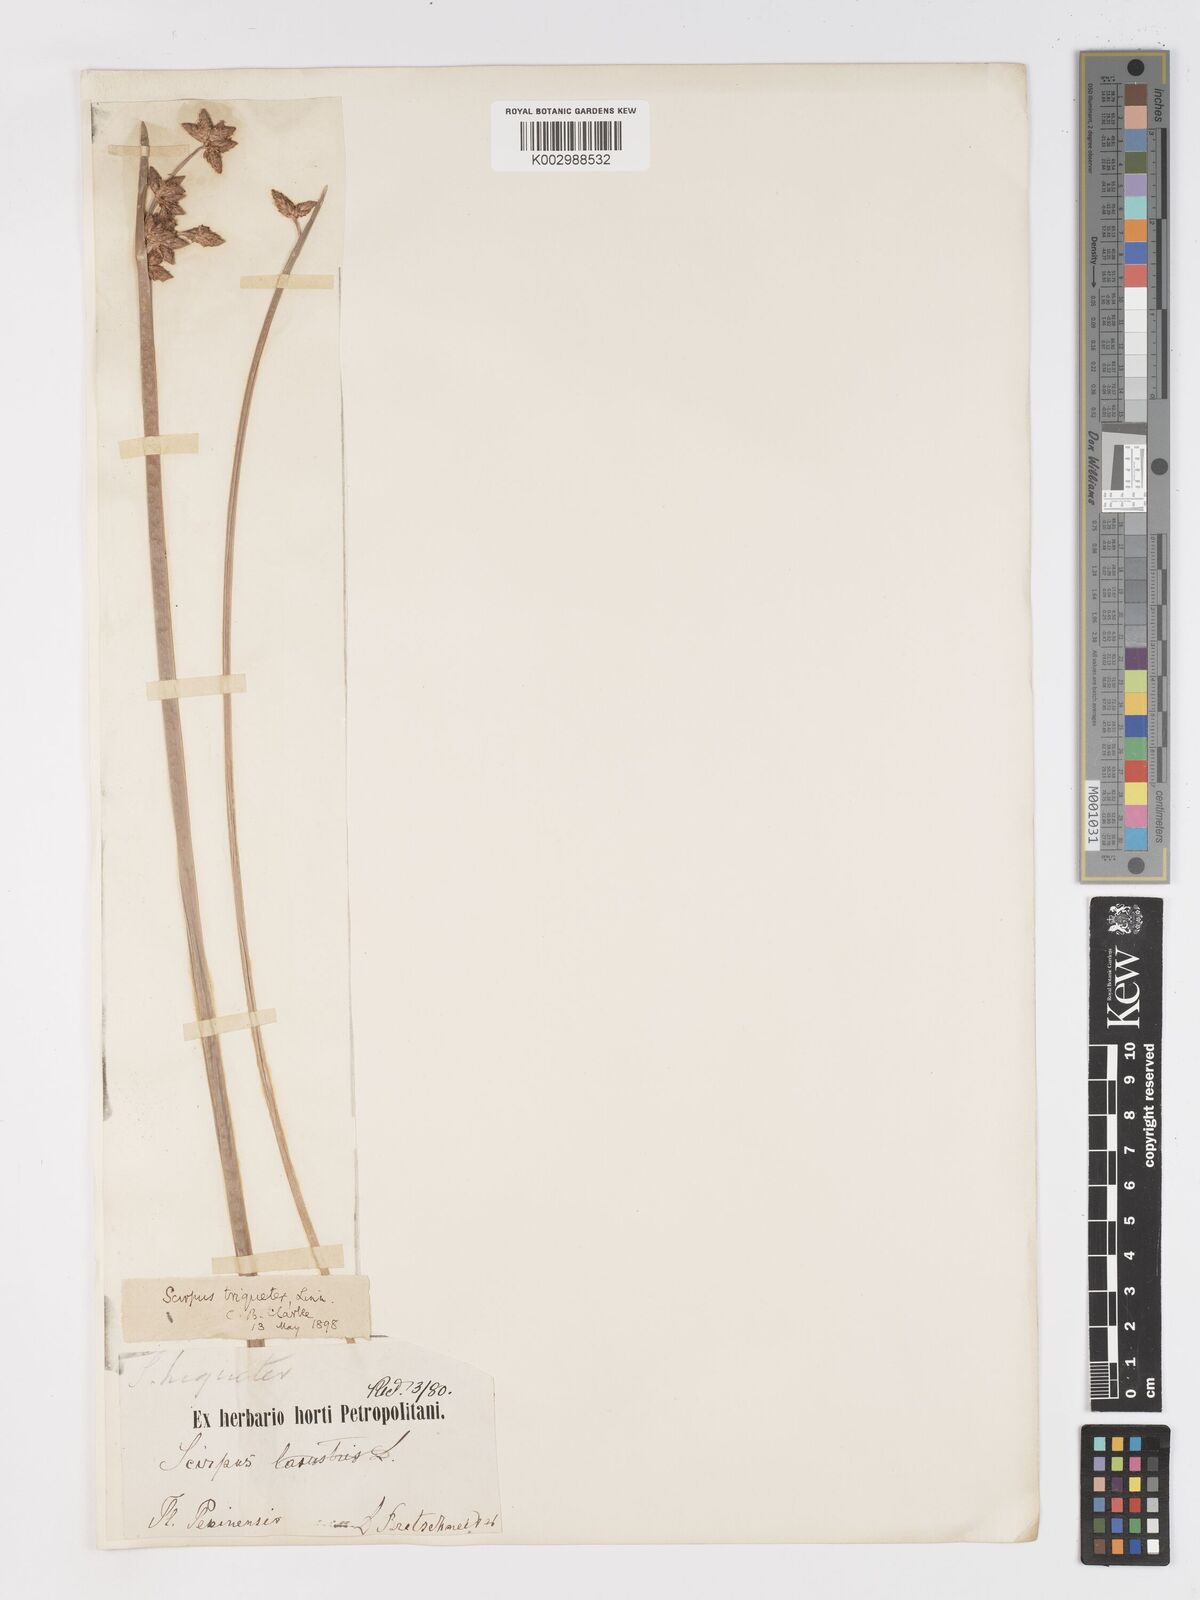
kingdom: Plantae
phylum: Tracheophyta
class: Liliopsida
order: Poales
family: Cyperaceae
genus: Schoenoplectus
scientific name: Schoenoplectus triqueter
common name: Triangular club-rush
